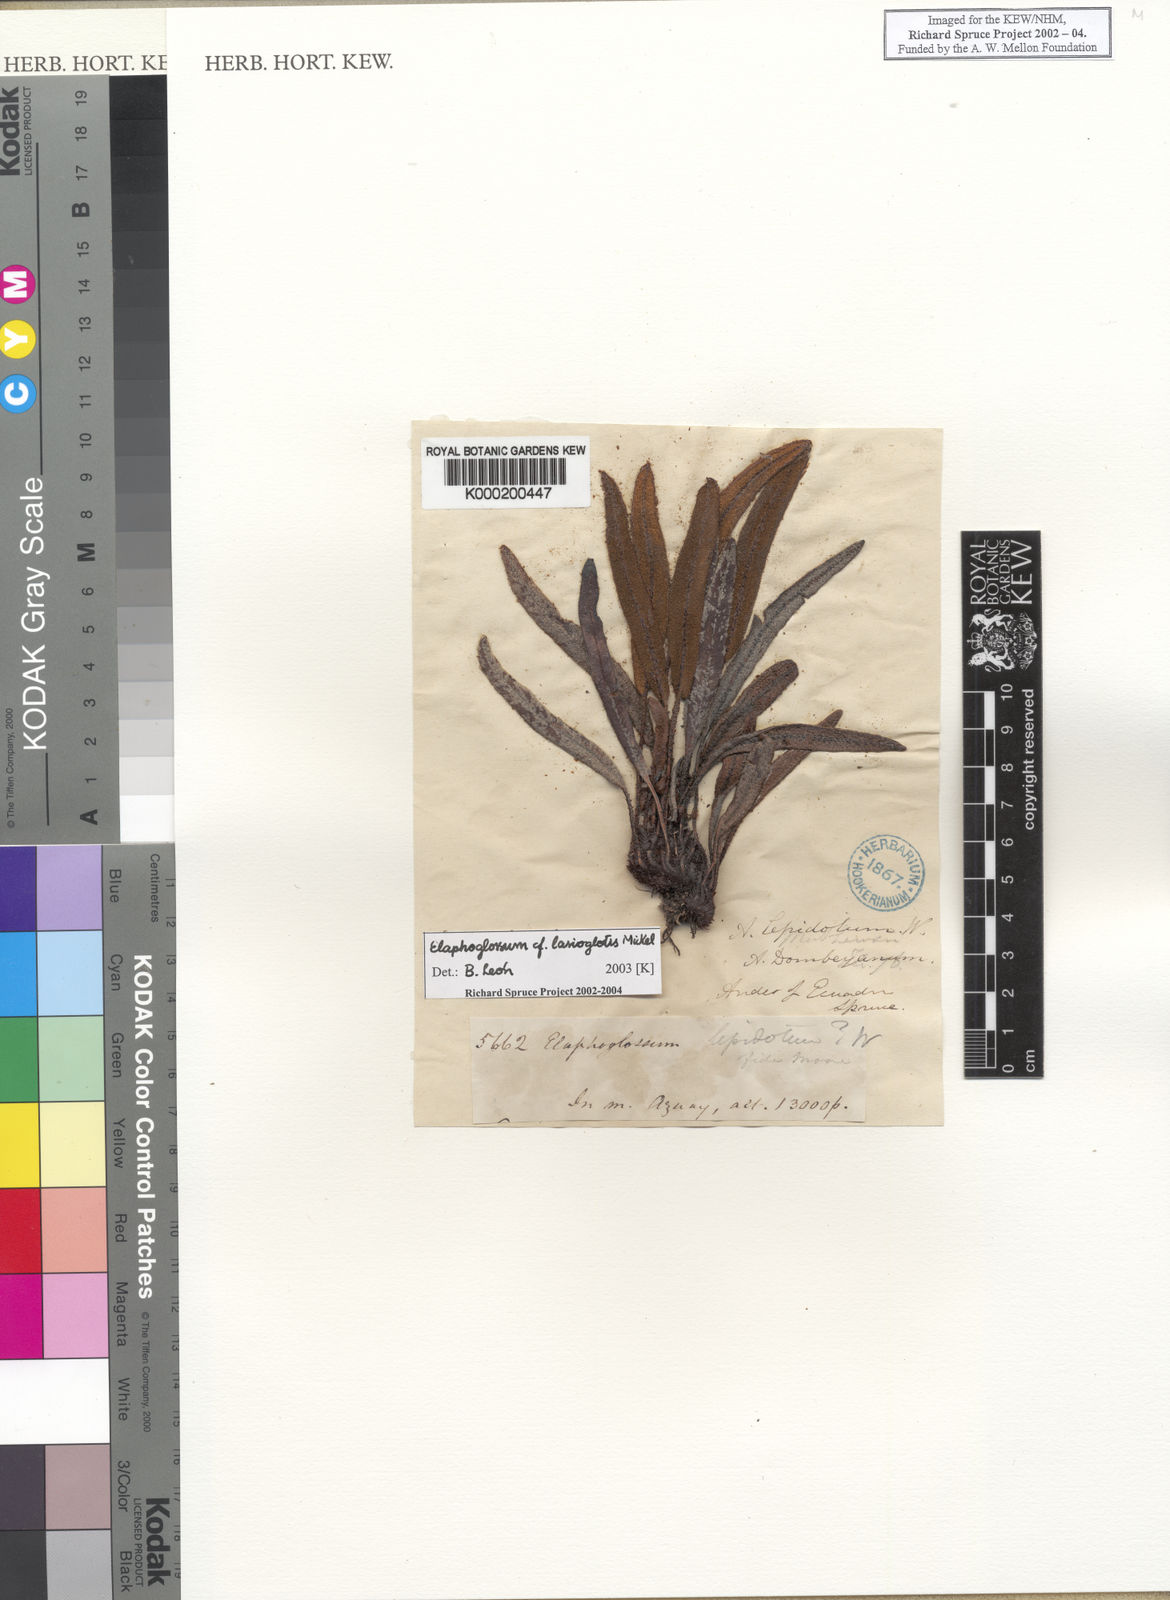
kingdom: Plantae
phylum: Tracheophyta
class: Polypodiopsida
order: Polypodiales
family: Dryopteridaceae
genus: Elaphoglossum
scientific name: Elaphoglossum lasioglottis
